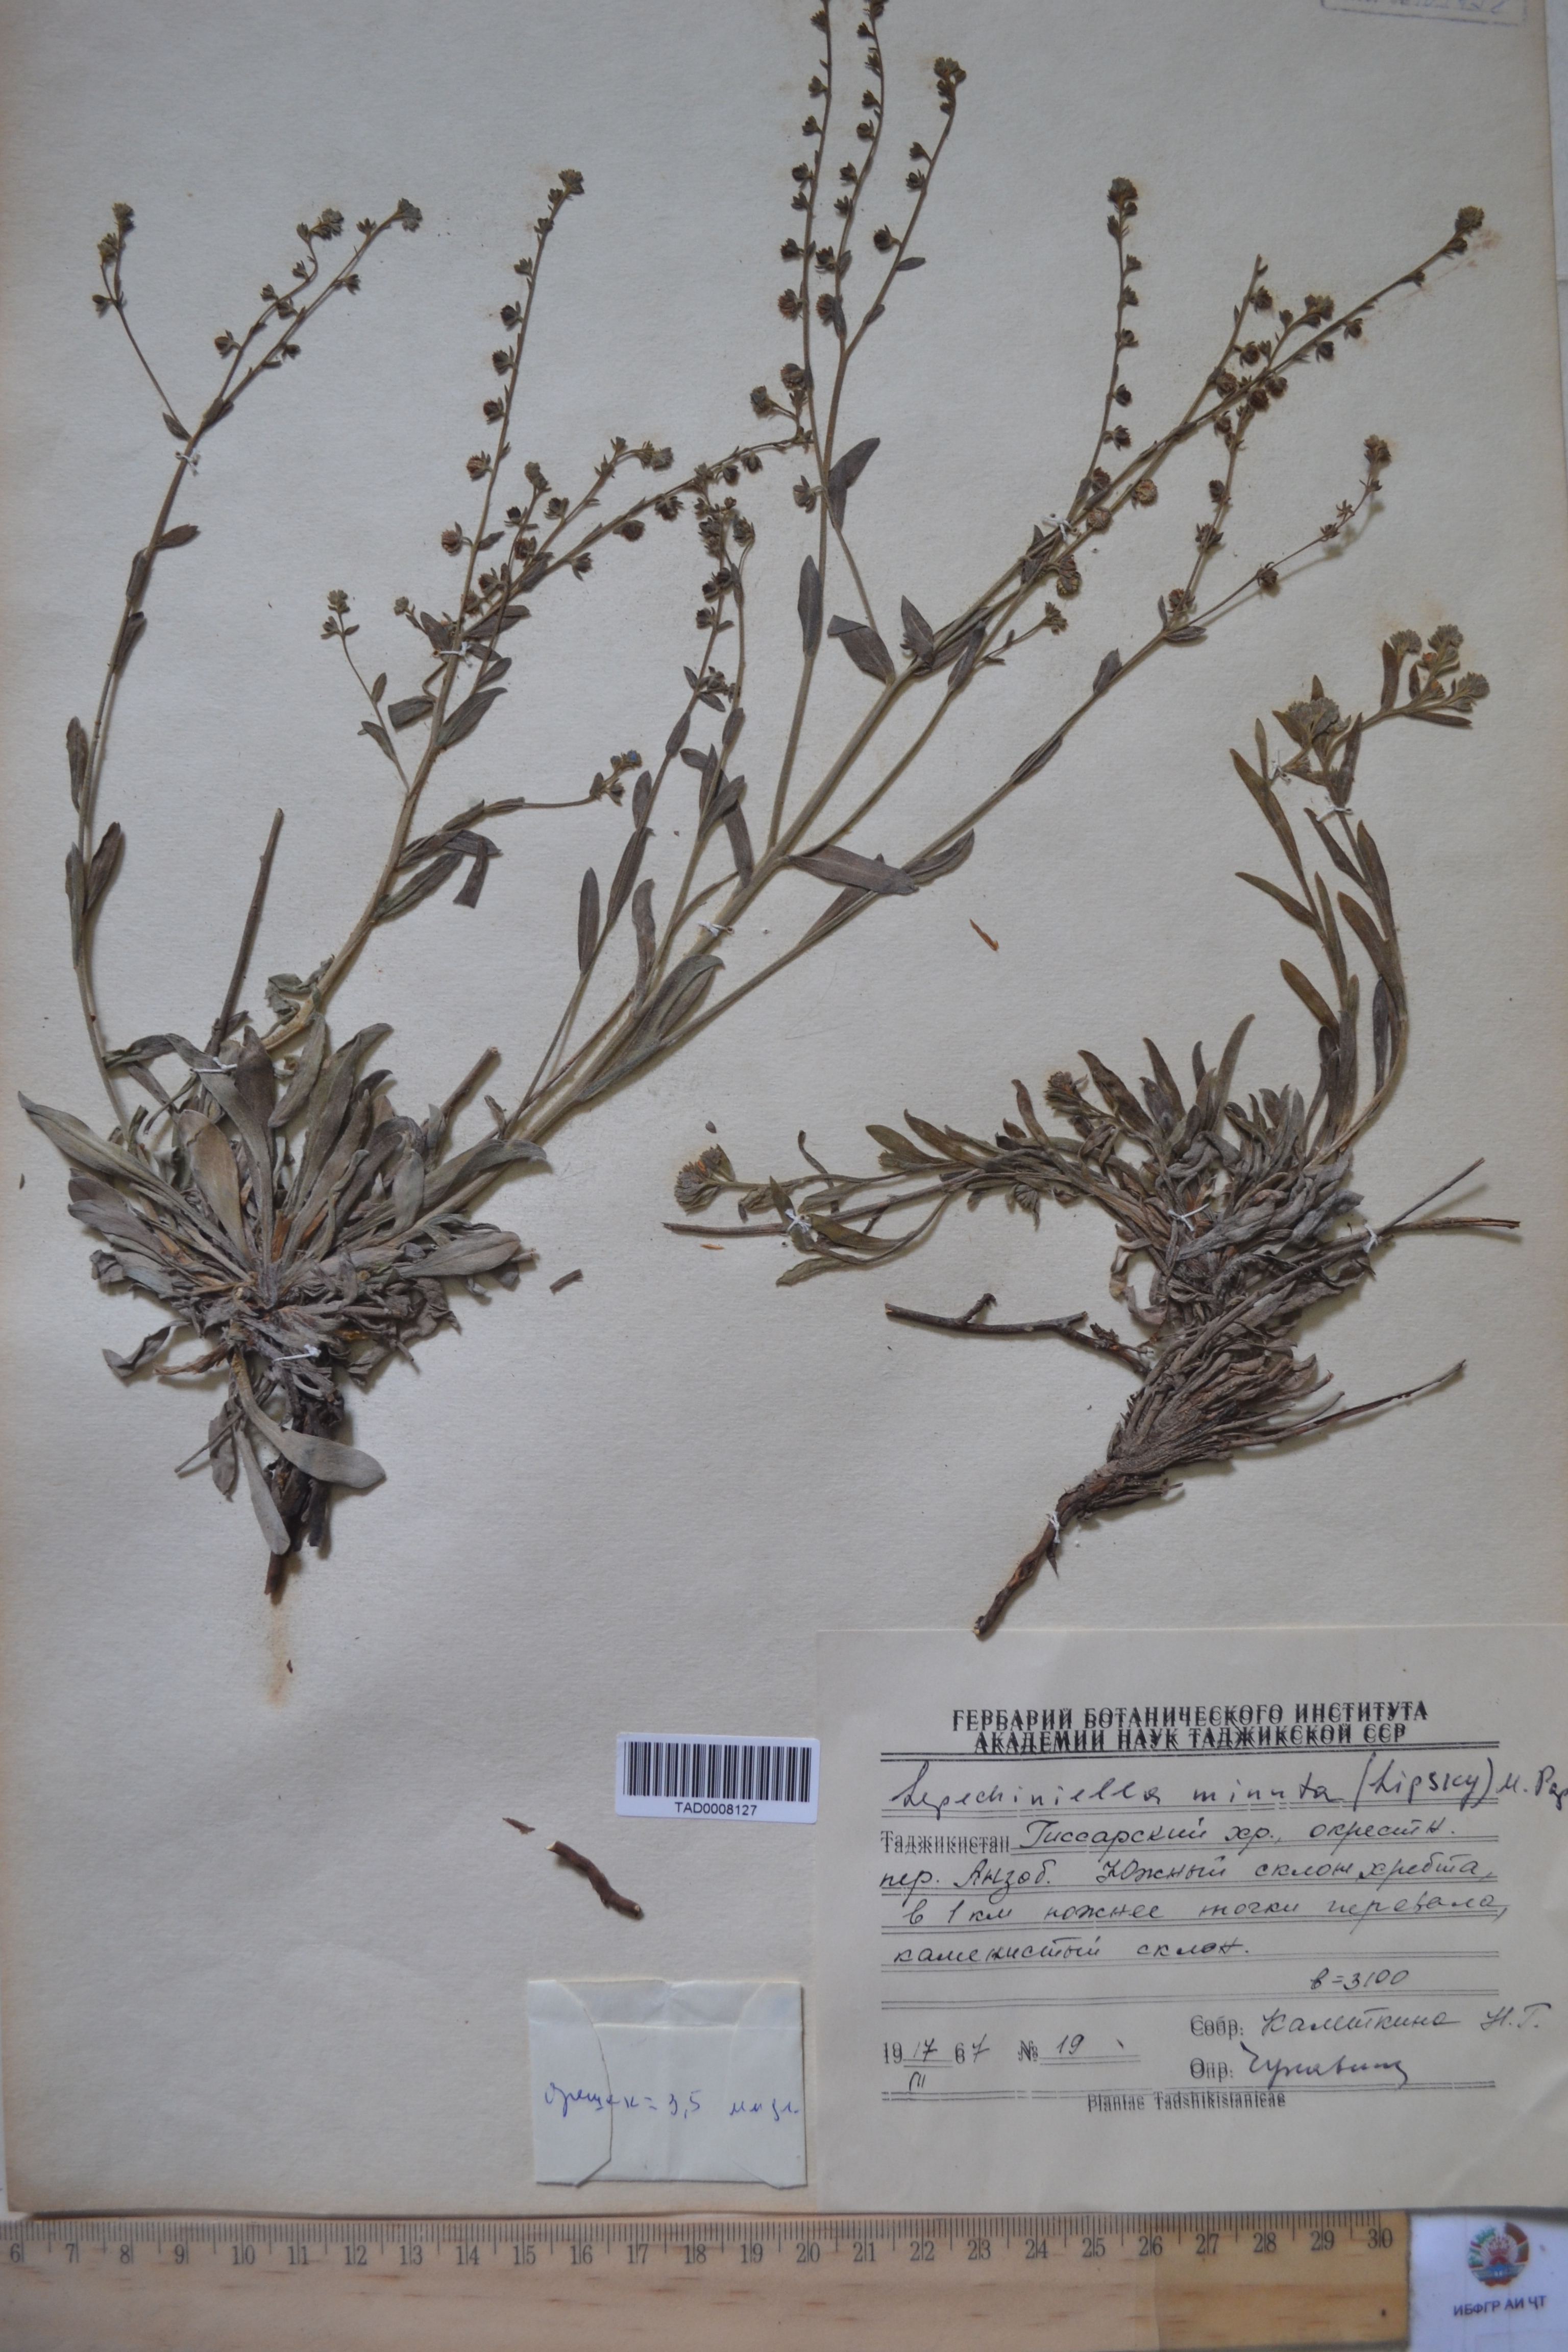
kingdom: Plantae
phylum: Tracheophyta
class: Magnoliopsida
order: Boraginales
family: Boraginaceae
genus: Lepechiniella
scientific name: Lepechiniella minuta
